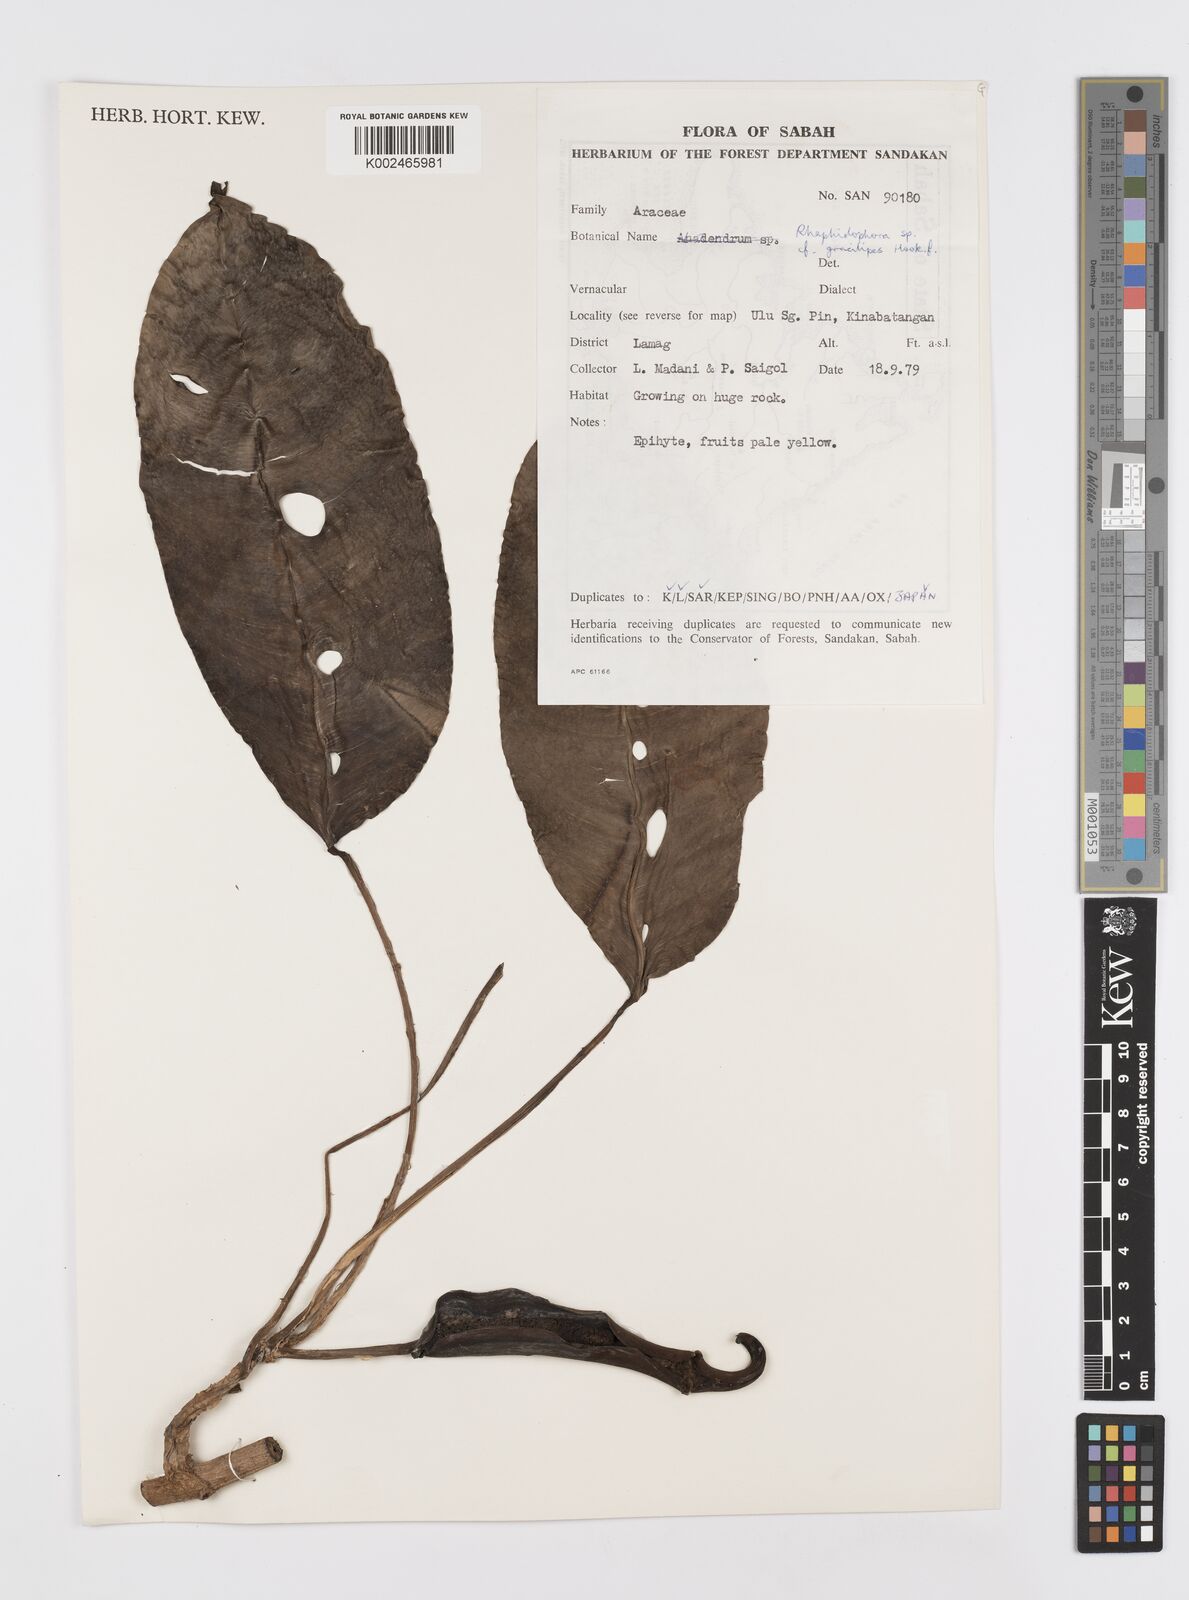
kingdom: Plantae
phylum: Tracheophyta
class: Liliopsida
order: Alismatales
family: Araceae
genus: Rhaphidophora
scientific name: Rhaphidophora puberula
